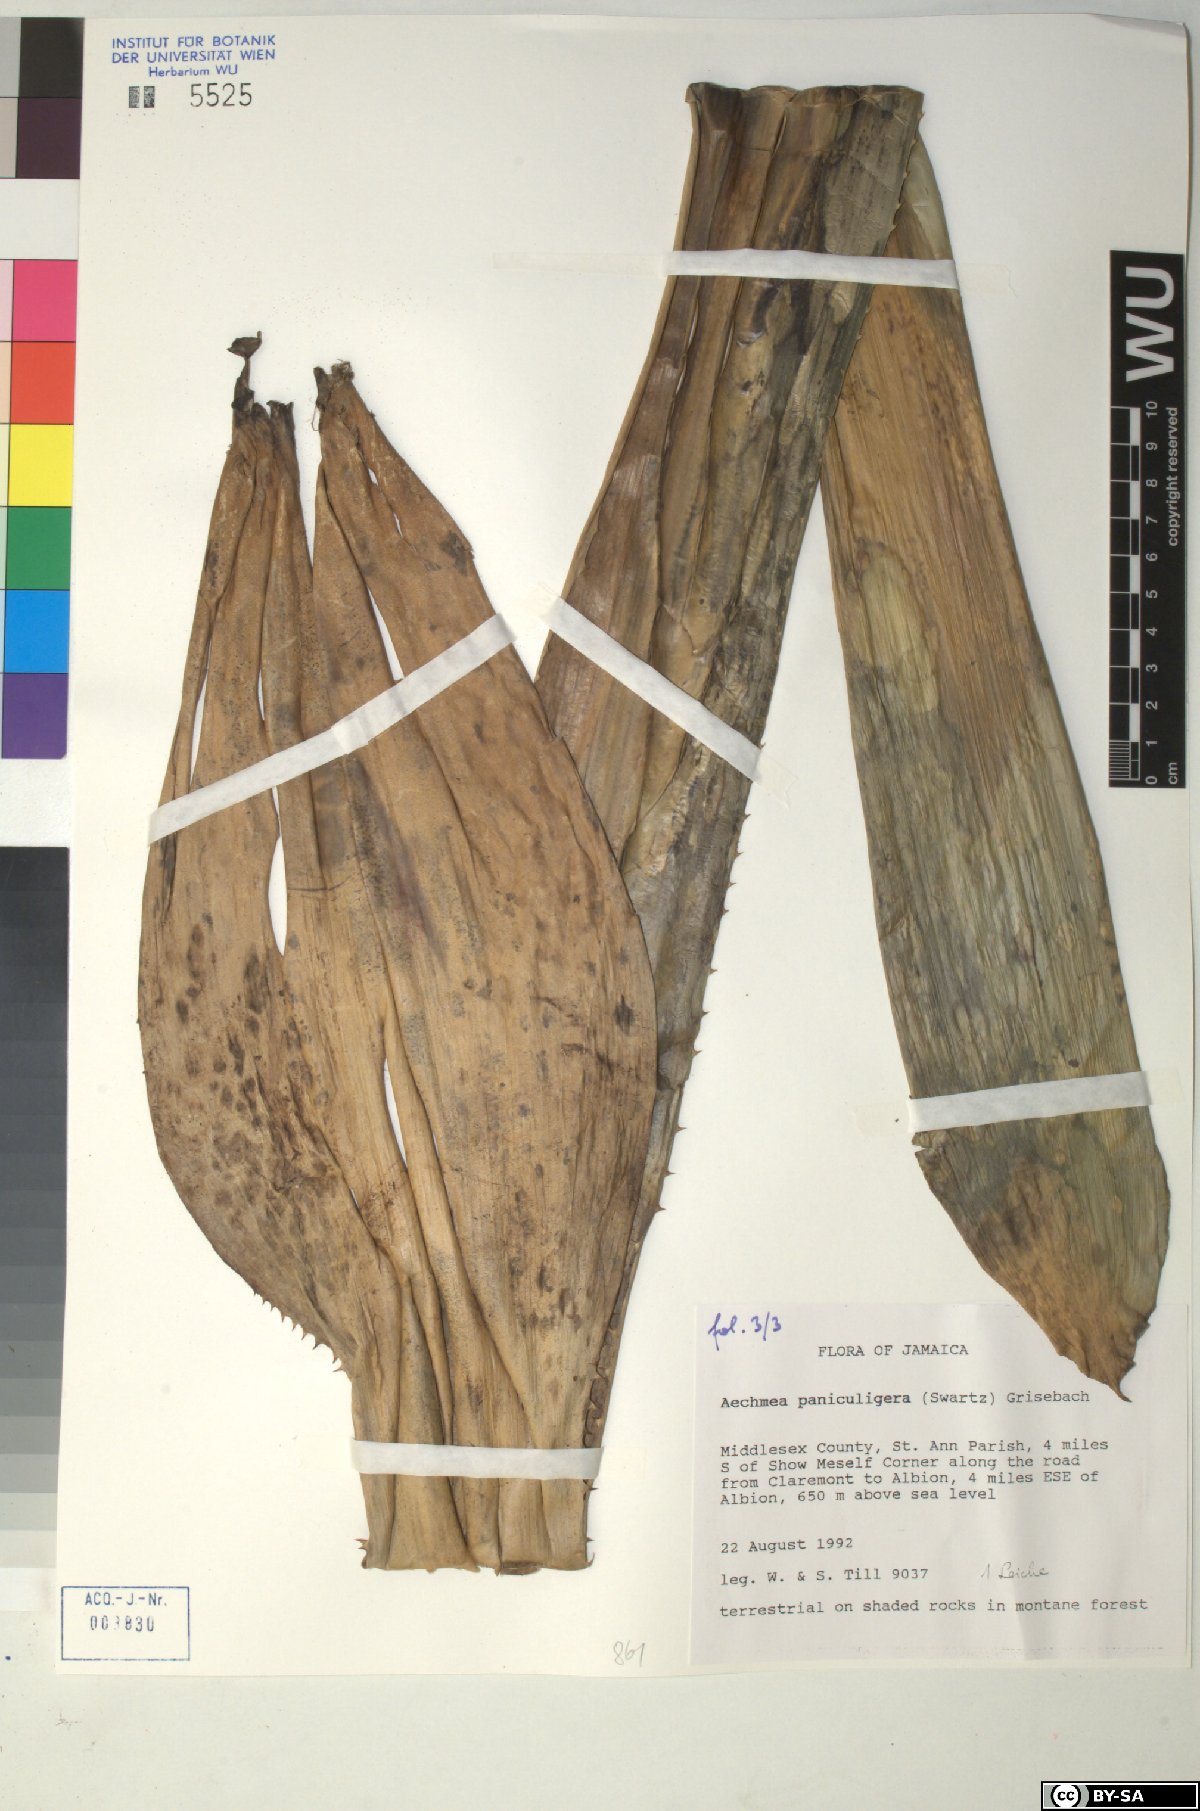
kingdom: Plantae
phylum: Tracheophyta
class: Liliopsida
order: Poales
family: Bromeliaceae
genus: Aechmea
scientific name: Aechmea paniculigera
